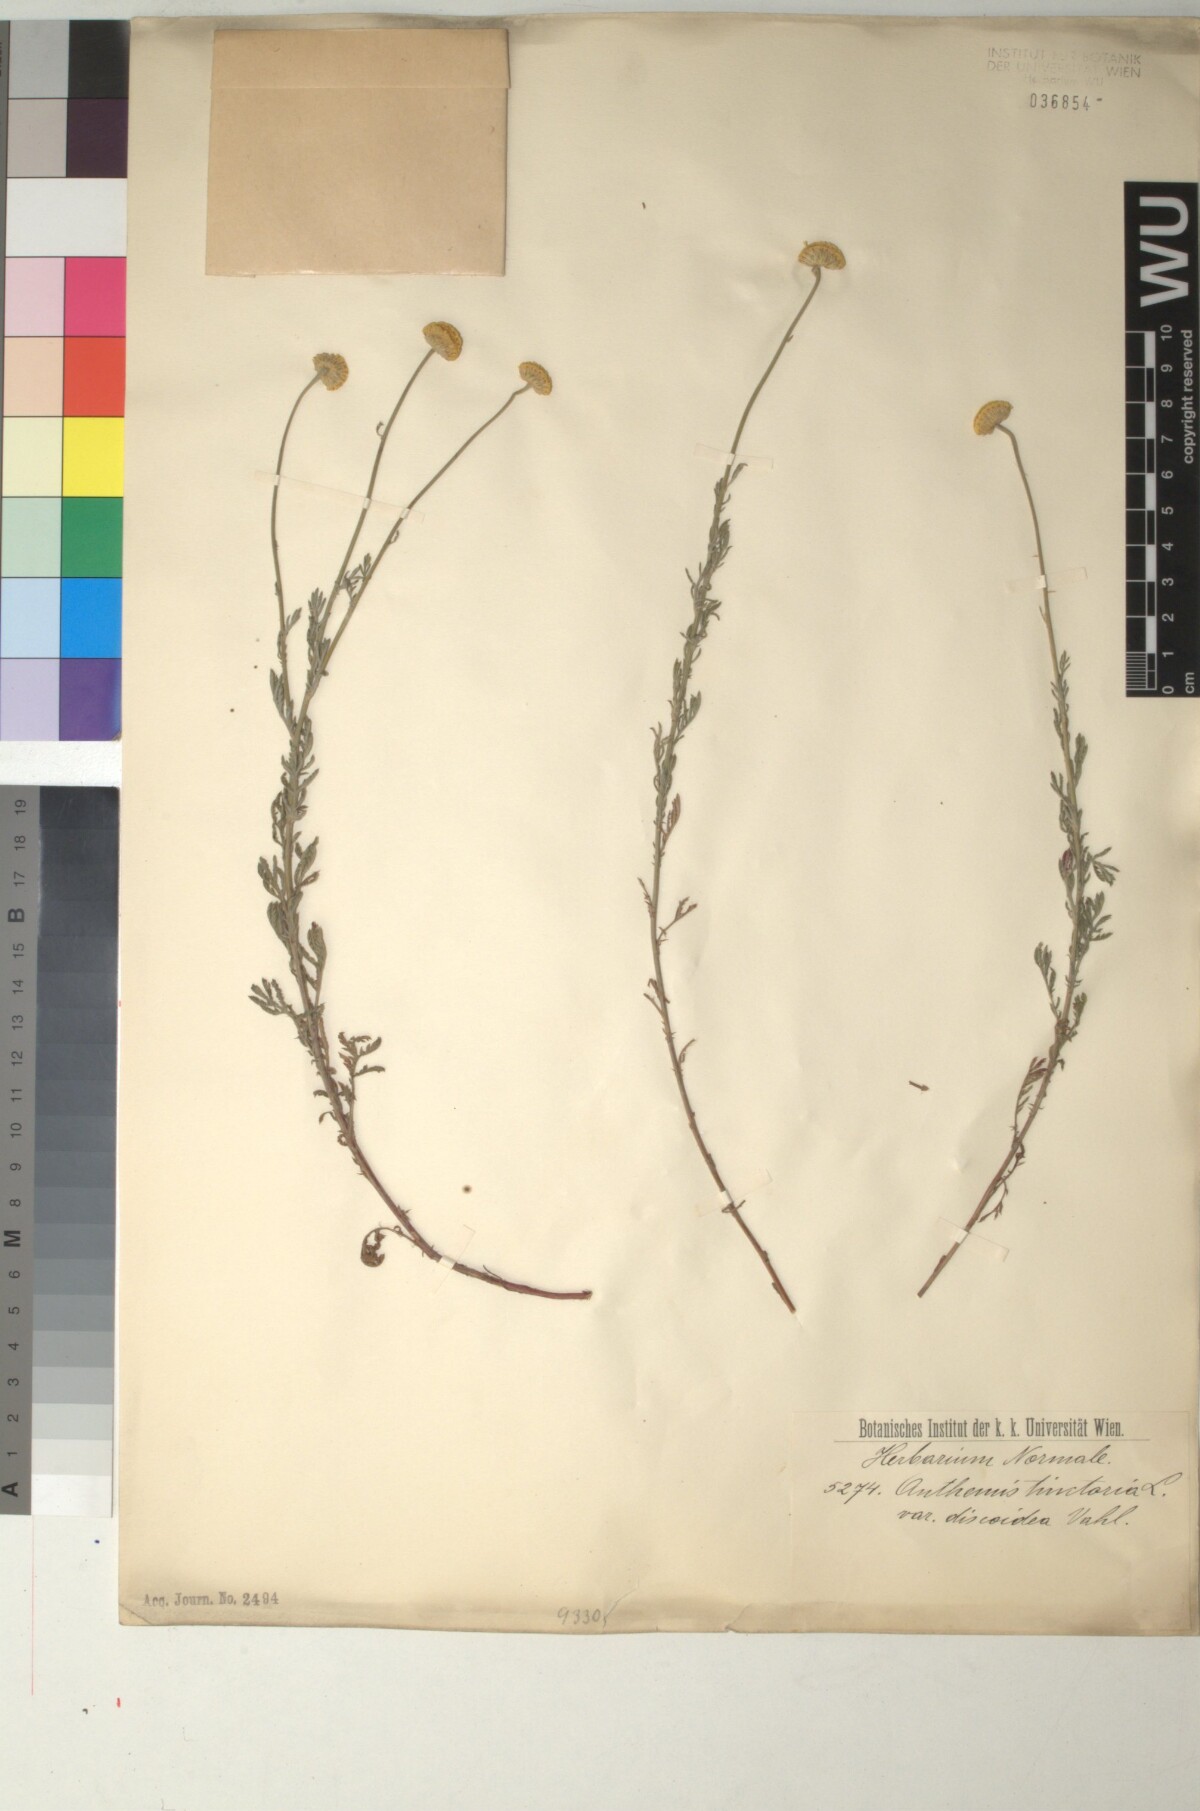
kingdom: Plantae
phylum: Tracheophyta
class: Magnoliopsida
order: Asterales
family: Asteraceae
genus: Cota
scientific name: Cota tinctoria
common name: Golden chamomile
